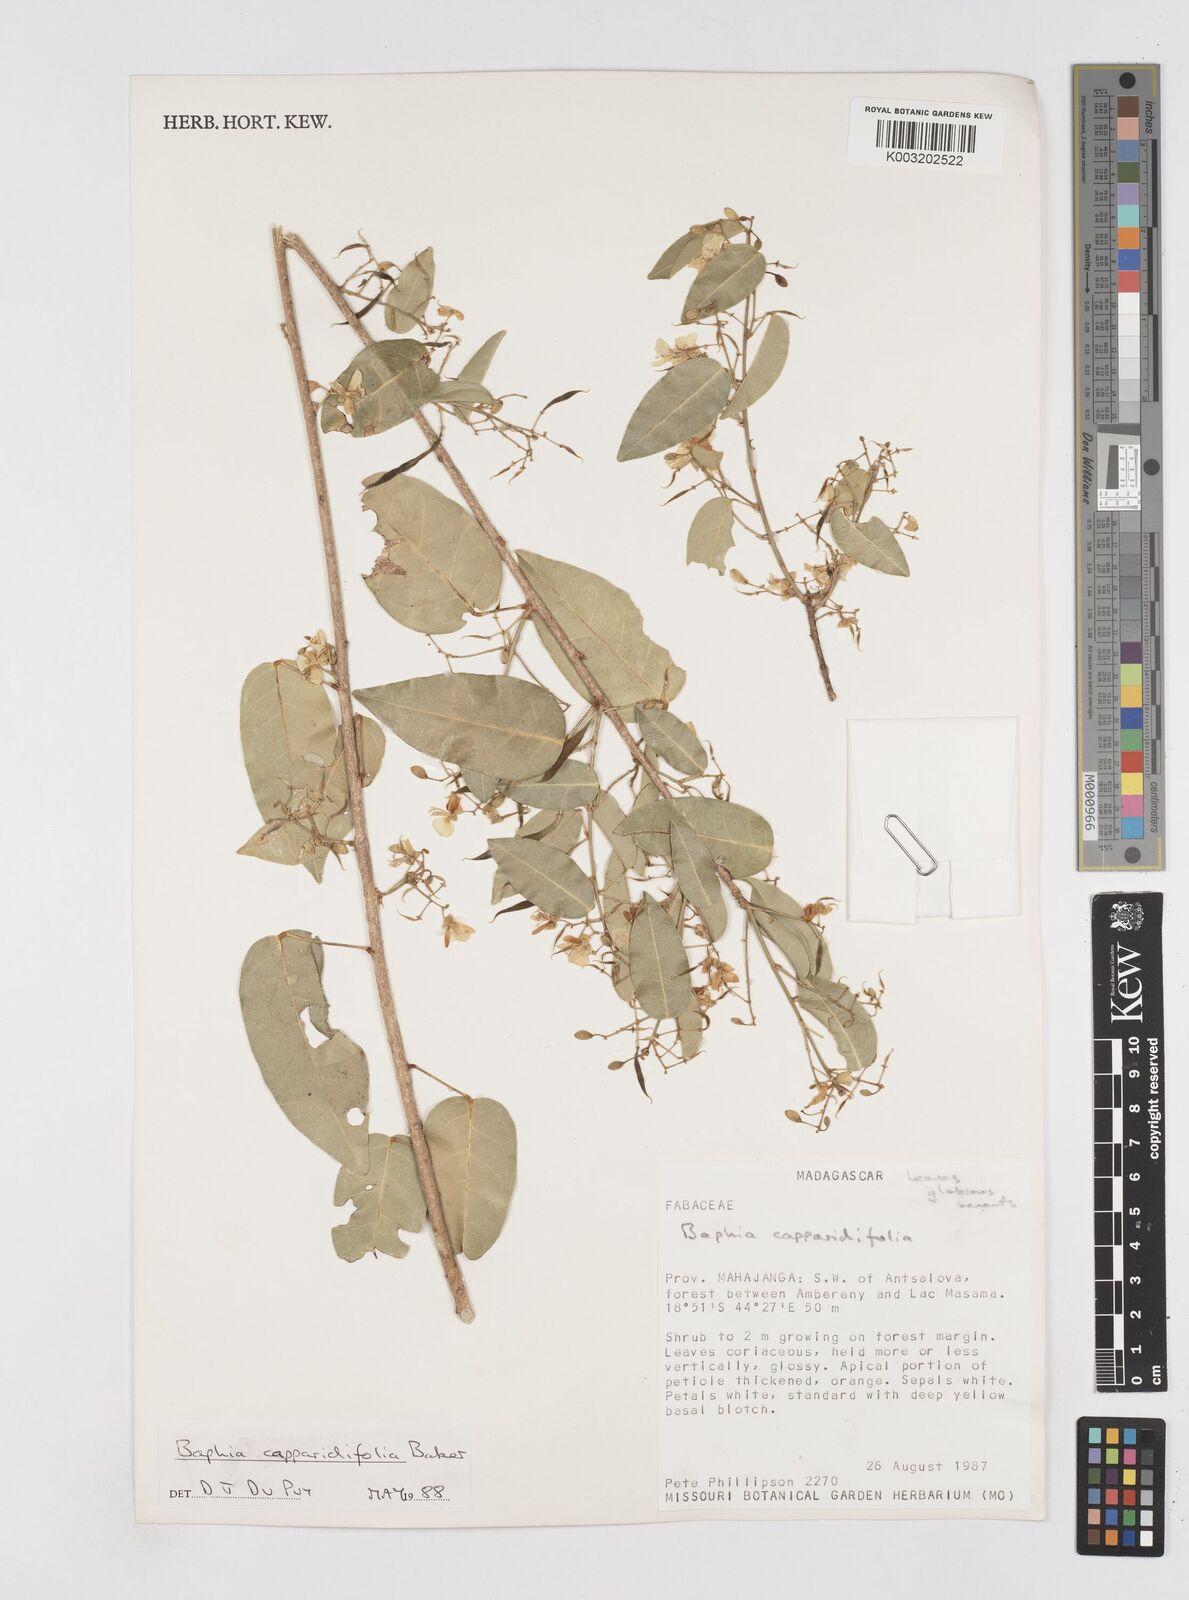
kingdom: Plantae
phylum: Tracheophyta
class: Magnoliopsida
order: Fabales
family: Fabaceae
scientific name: Fabaceae
